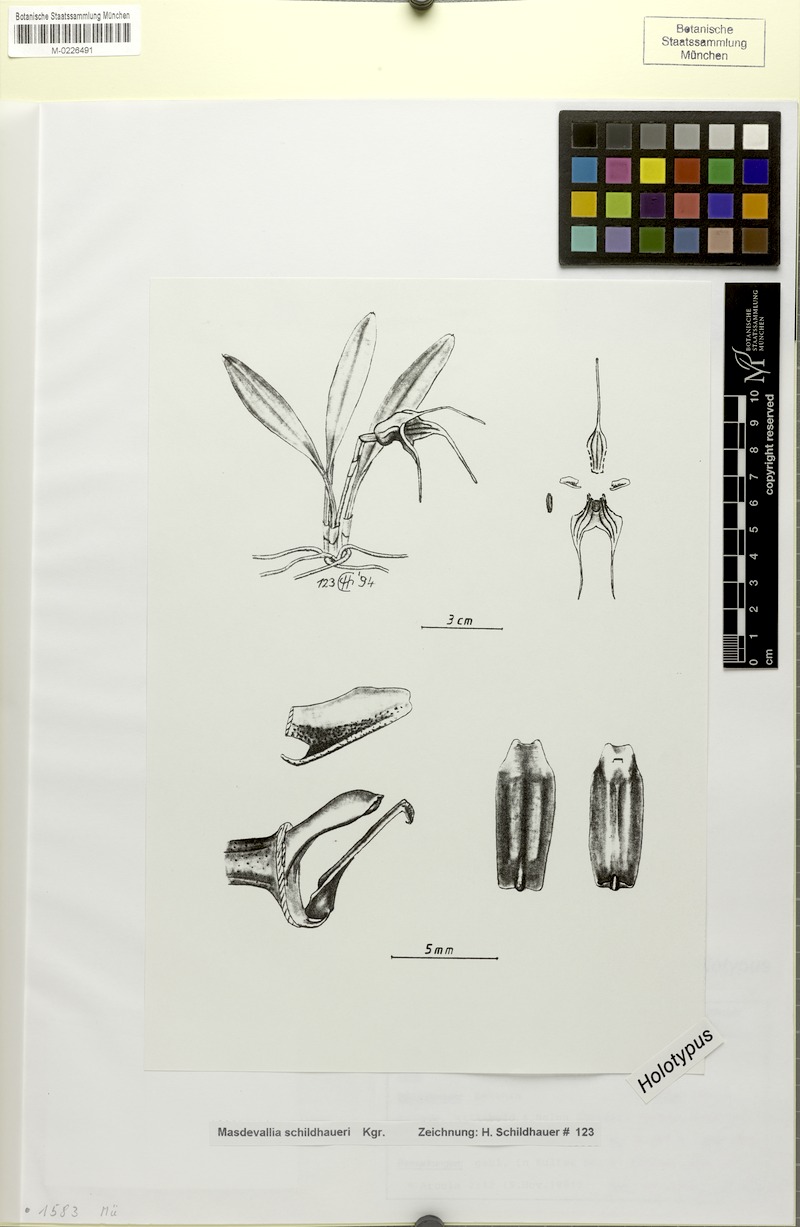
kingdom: Plantae
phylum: Tracheophyta
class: Liliopsida
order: Asparagales
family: Orchidaceae
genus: Masdevallia
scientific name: Masdevallia schildhaueri
